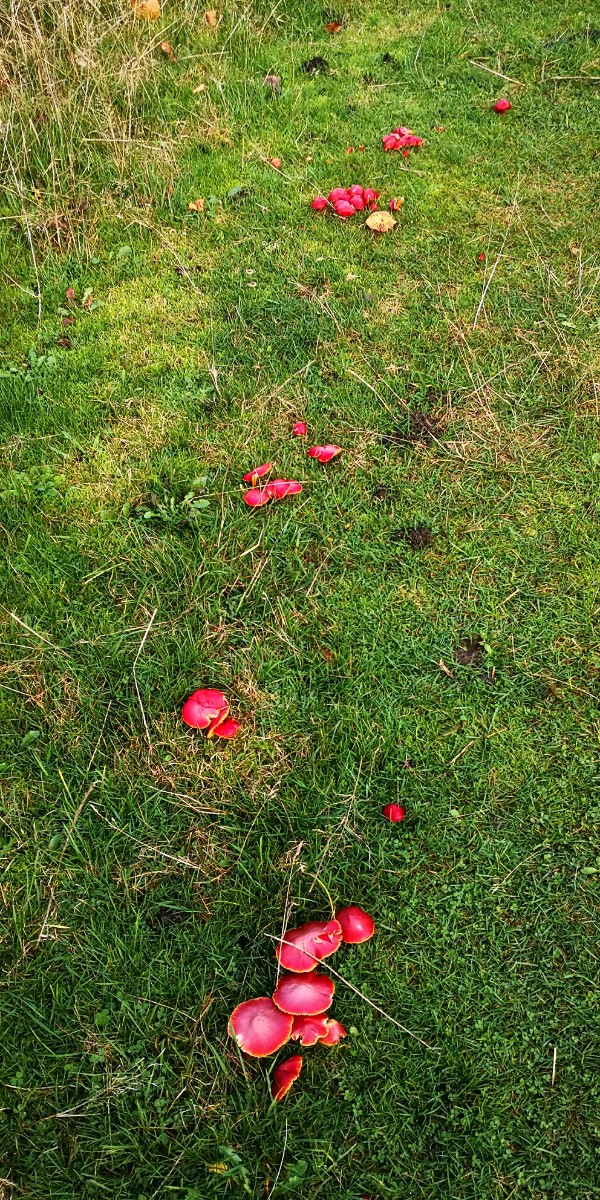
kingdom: Fungi
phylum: Basidiomycota
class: Agaricomycetes
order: Agaricales
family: Hygrophoraceae
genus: Hygrocybe
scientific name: Hygrocybe coccinea
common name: cinnober-vokshat
